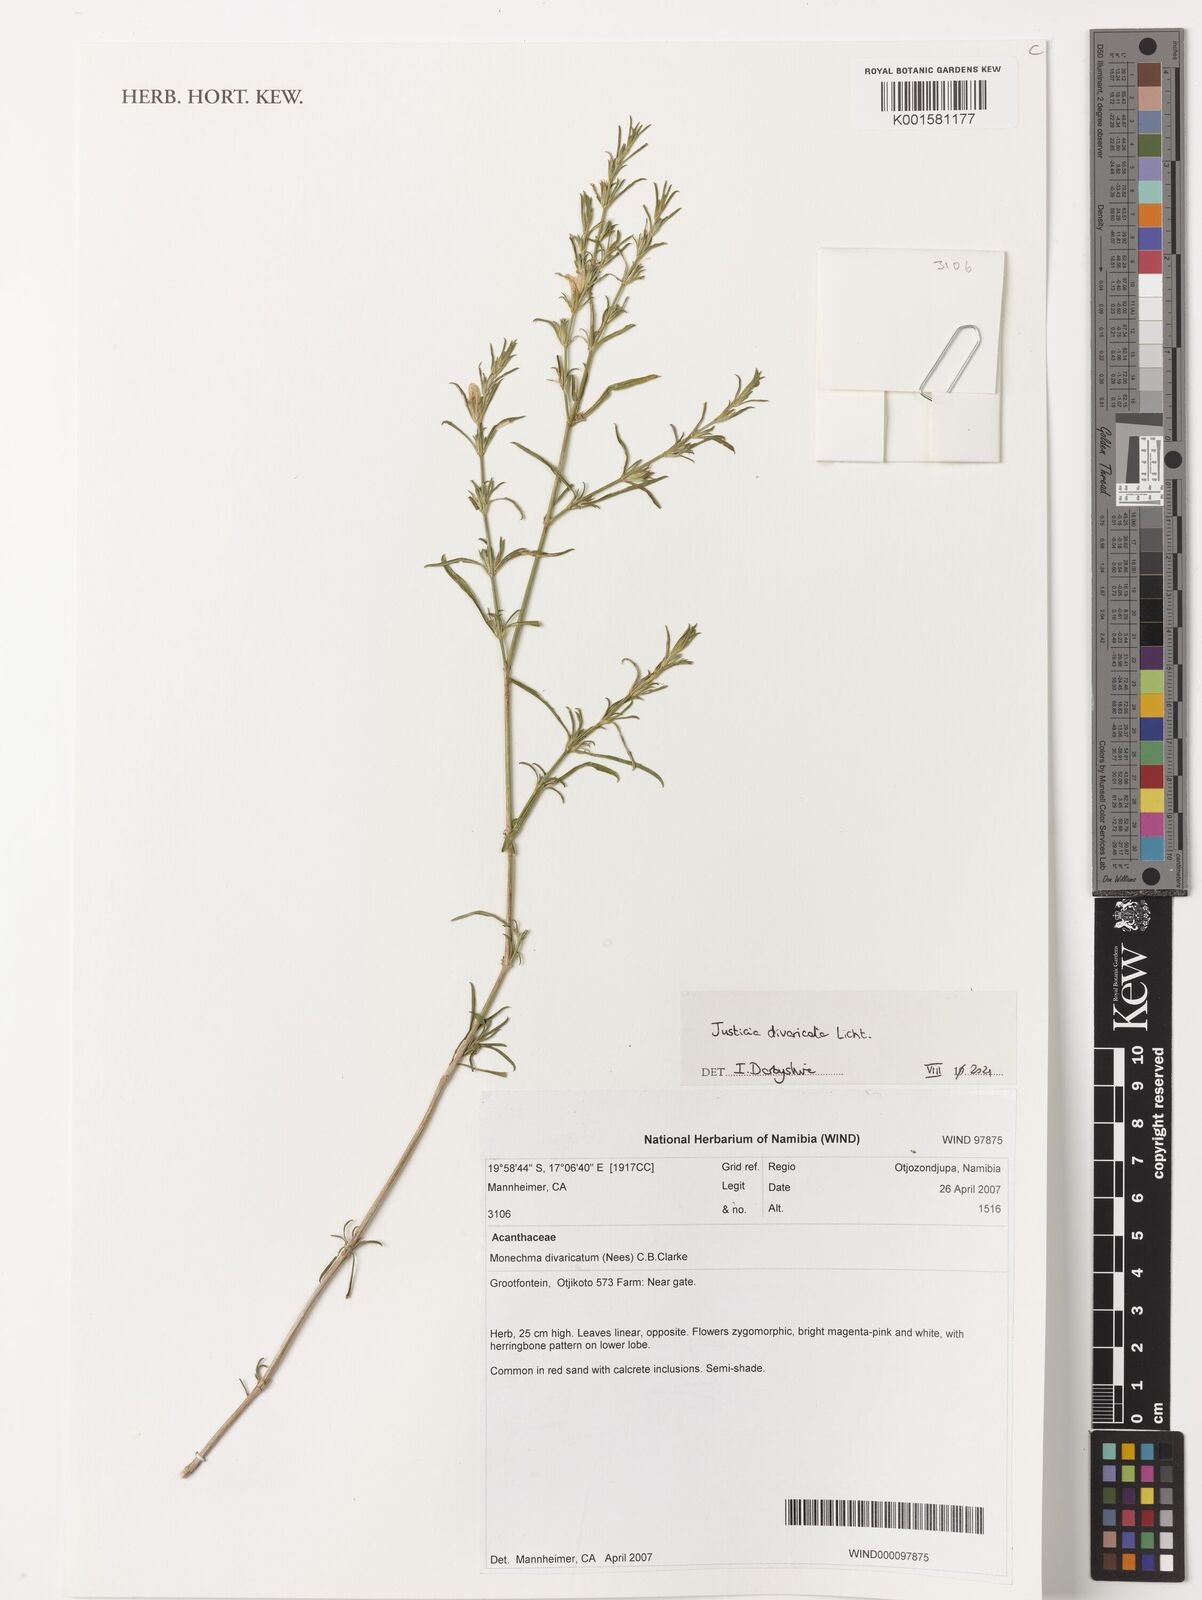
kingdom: Plantae
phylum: Tracheophyta
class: Magnoliopsida
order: Lamiales
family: Acanthaceae
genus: Monechma
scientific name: Monechma divaricatum
